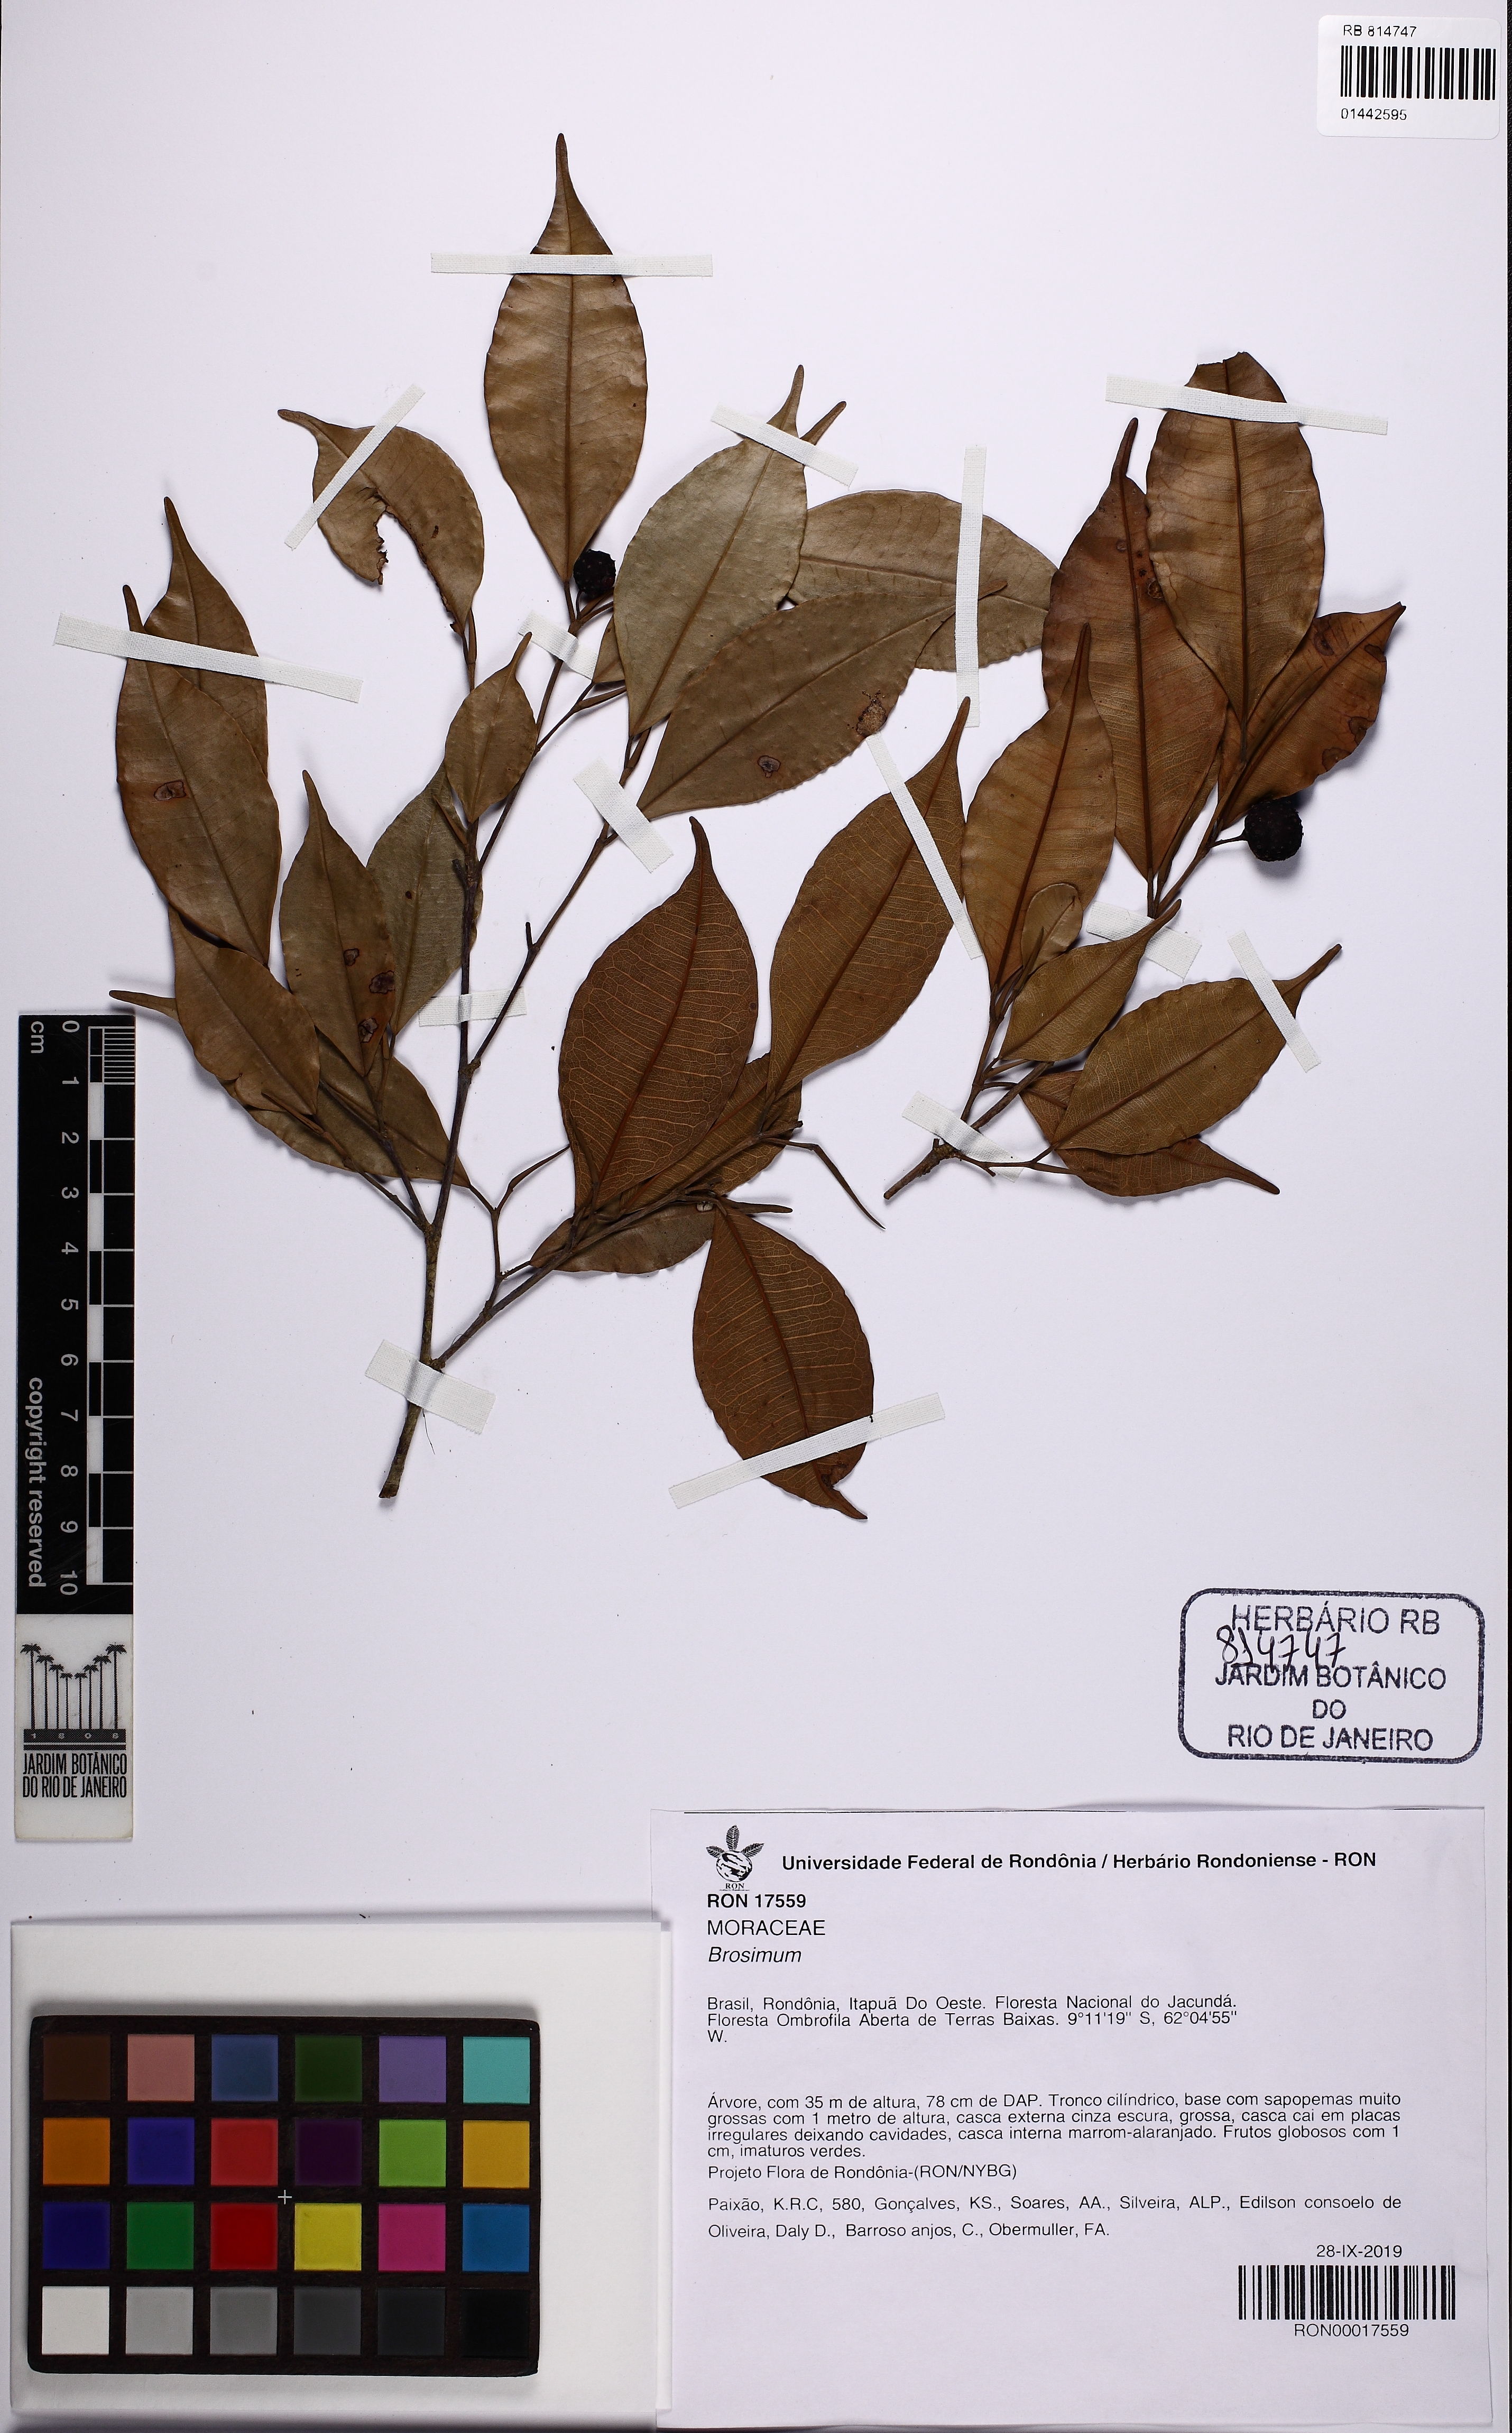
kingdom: Plantae
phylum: Tracheophyta
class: Magnoliopsida
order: Rosales
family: Moraceae
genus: Brosimum
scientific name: Brosimum
